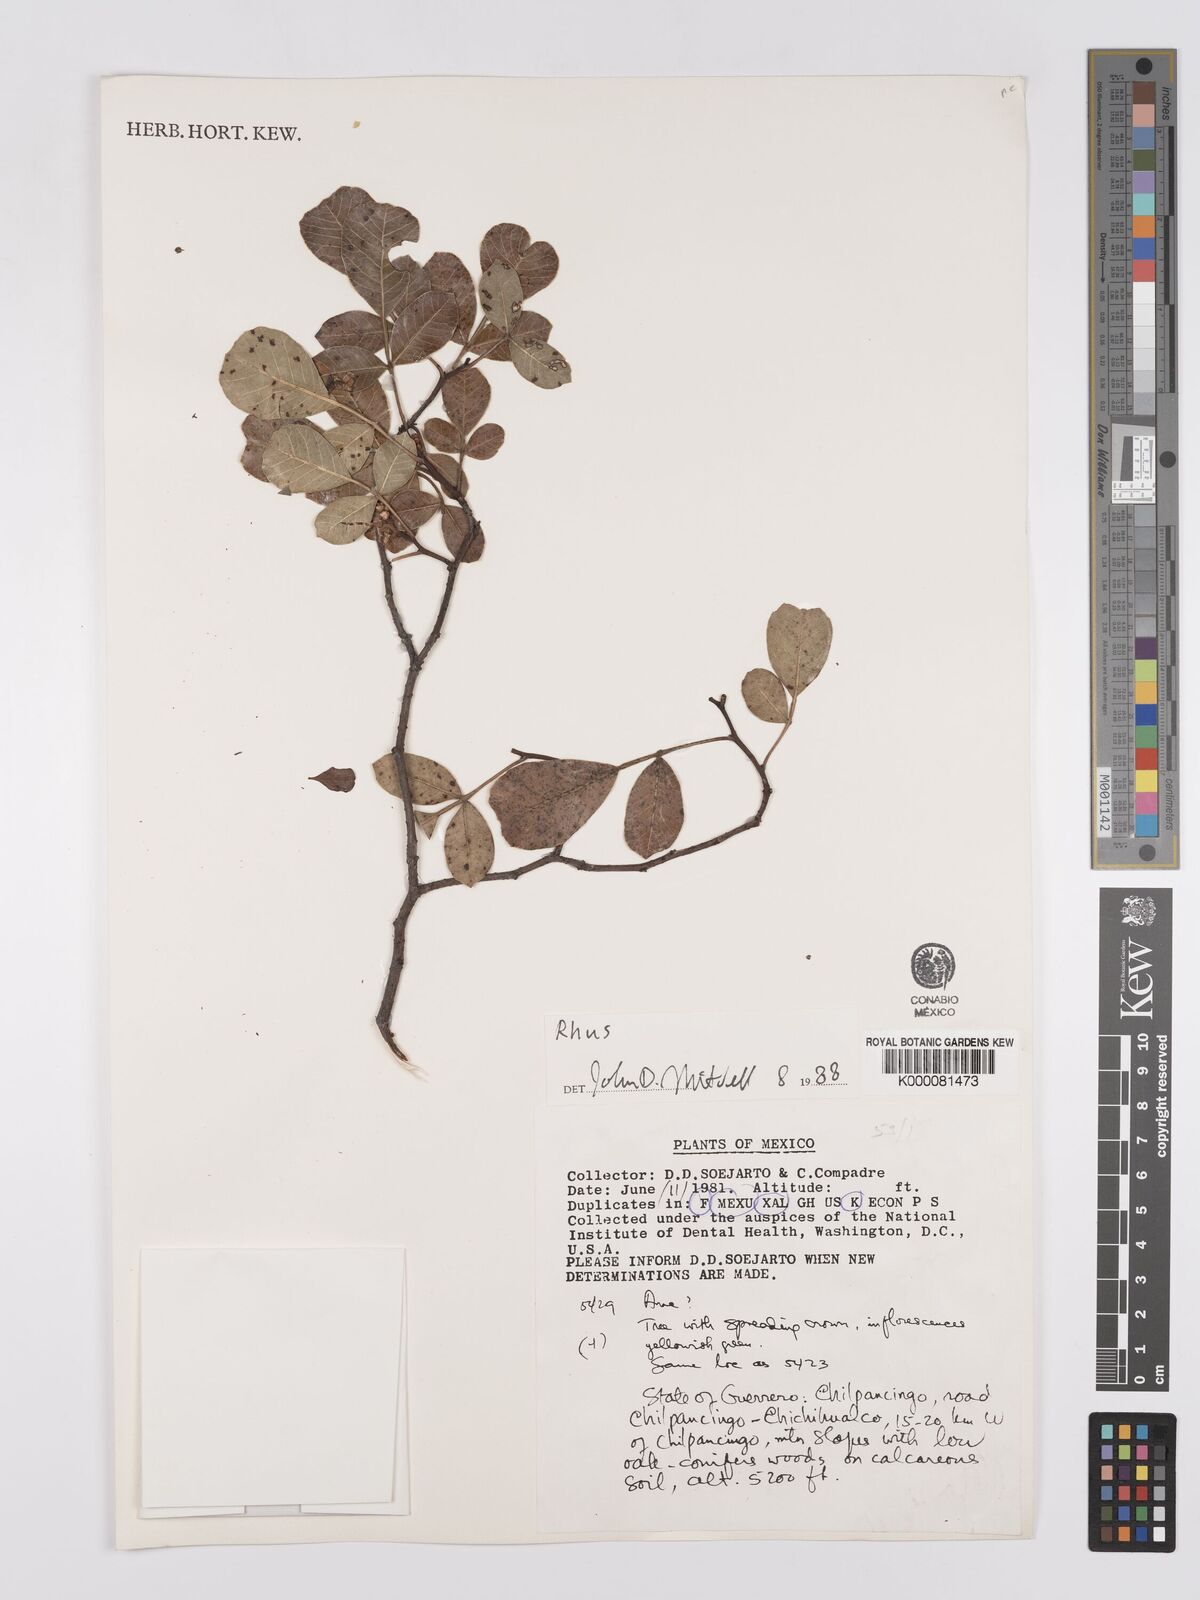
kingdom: Plantae
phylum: Tracheophyta
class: Magnoliopsida
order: Sapindales
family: Anacardiaceae
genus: Rhus
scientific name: Rhus
